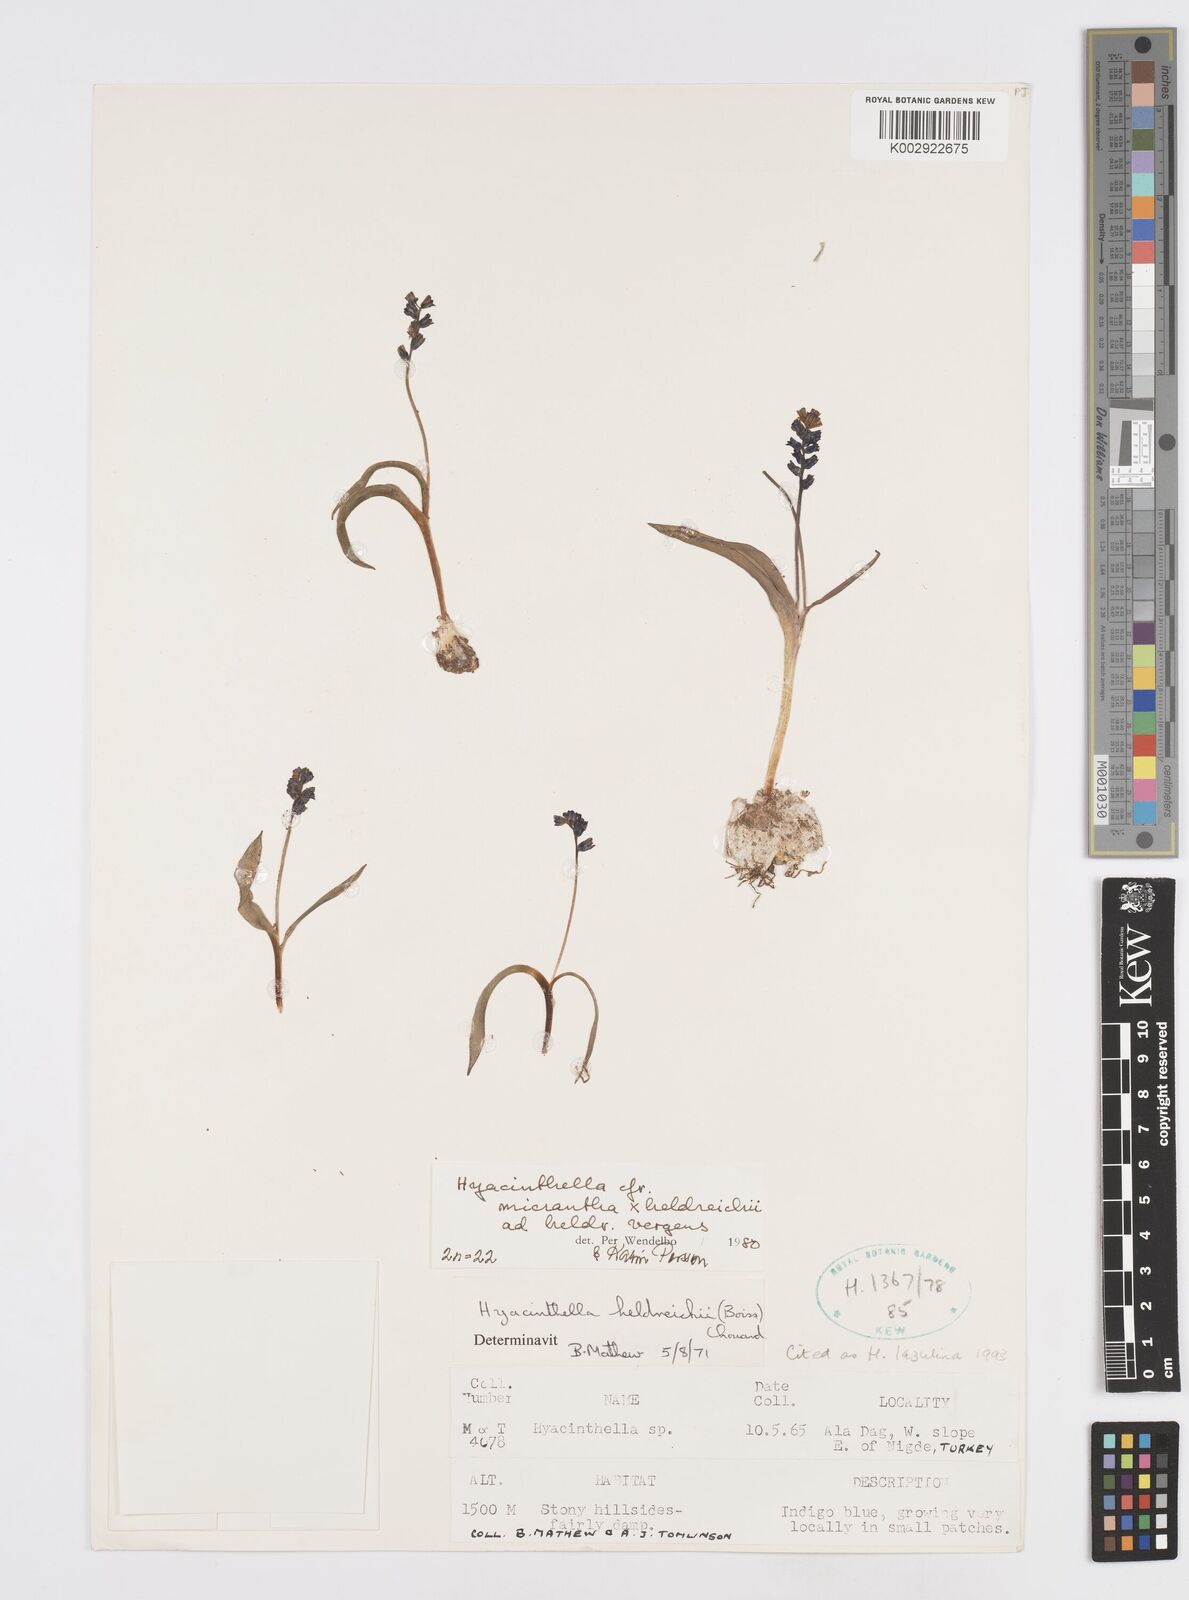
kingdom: Plantae
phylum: Tracheophyta
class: Liliopsida
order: Asparagales
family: Asparagaceae
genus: Hyacinthella
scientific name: Hyacinthella lazulina
